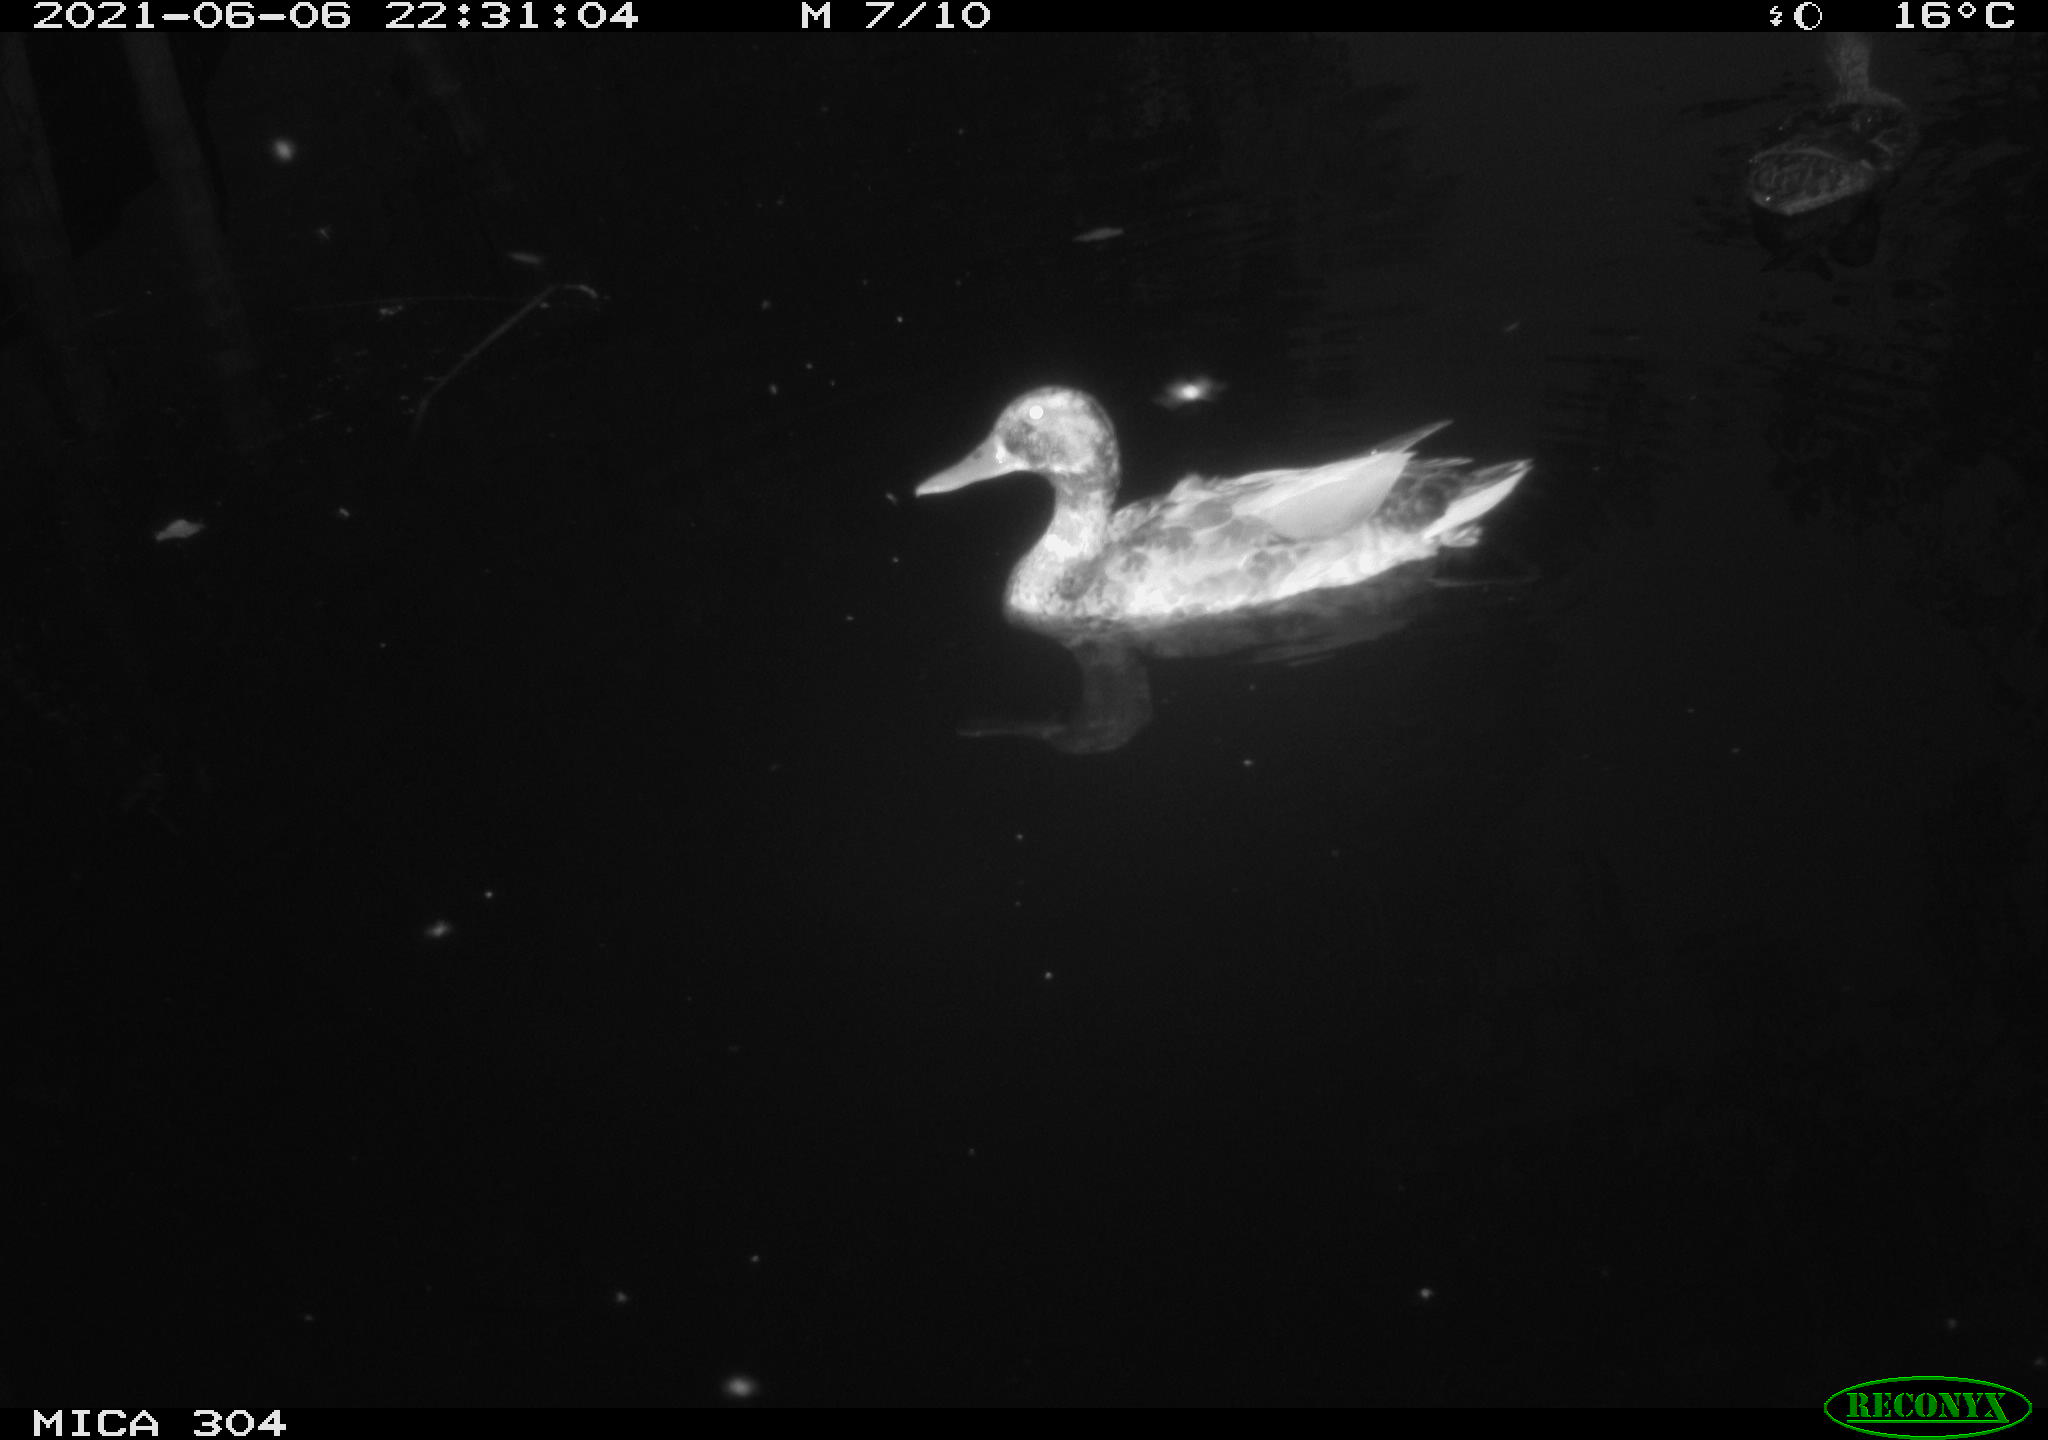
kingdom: Animalia
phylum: Chordata
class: Aves
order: Anseriformes
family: Anatidae
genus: Mareca
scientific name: Mareca strepera
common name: Gadwall
